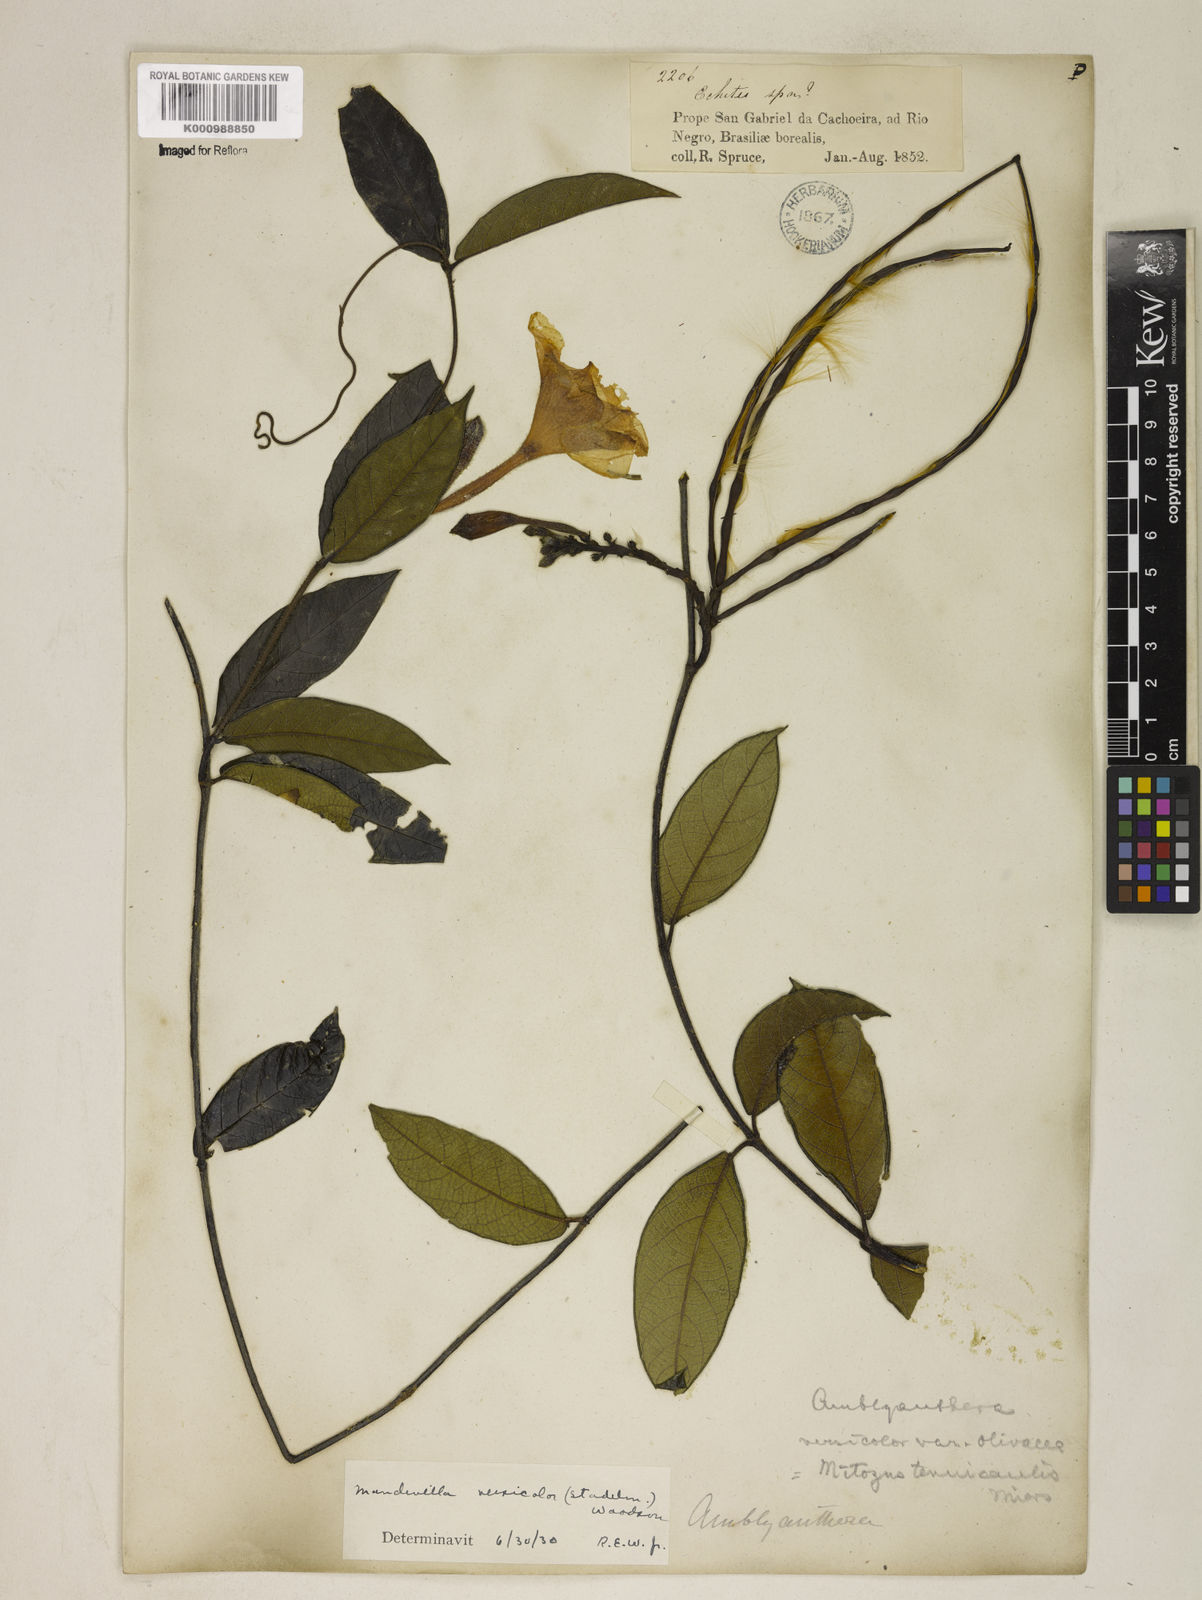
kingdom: Plantae
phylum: Tracheophyta
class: Magnoliopsida
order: Gentianales
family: Apocynaceae
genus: Mandevilla
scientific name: Mandevilla scabra
